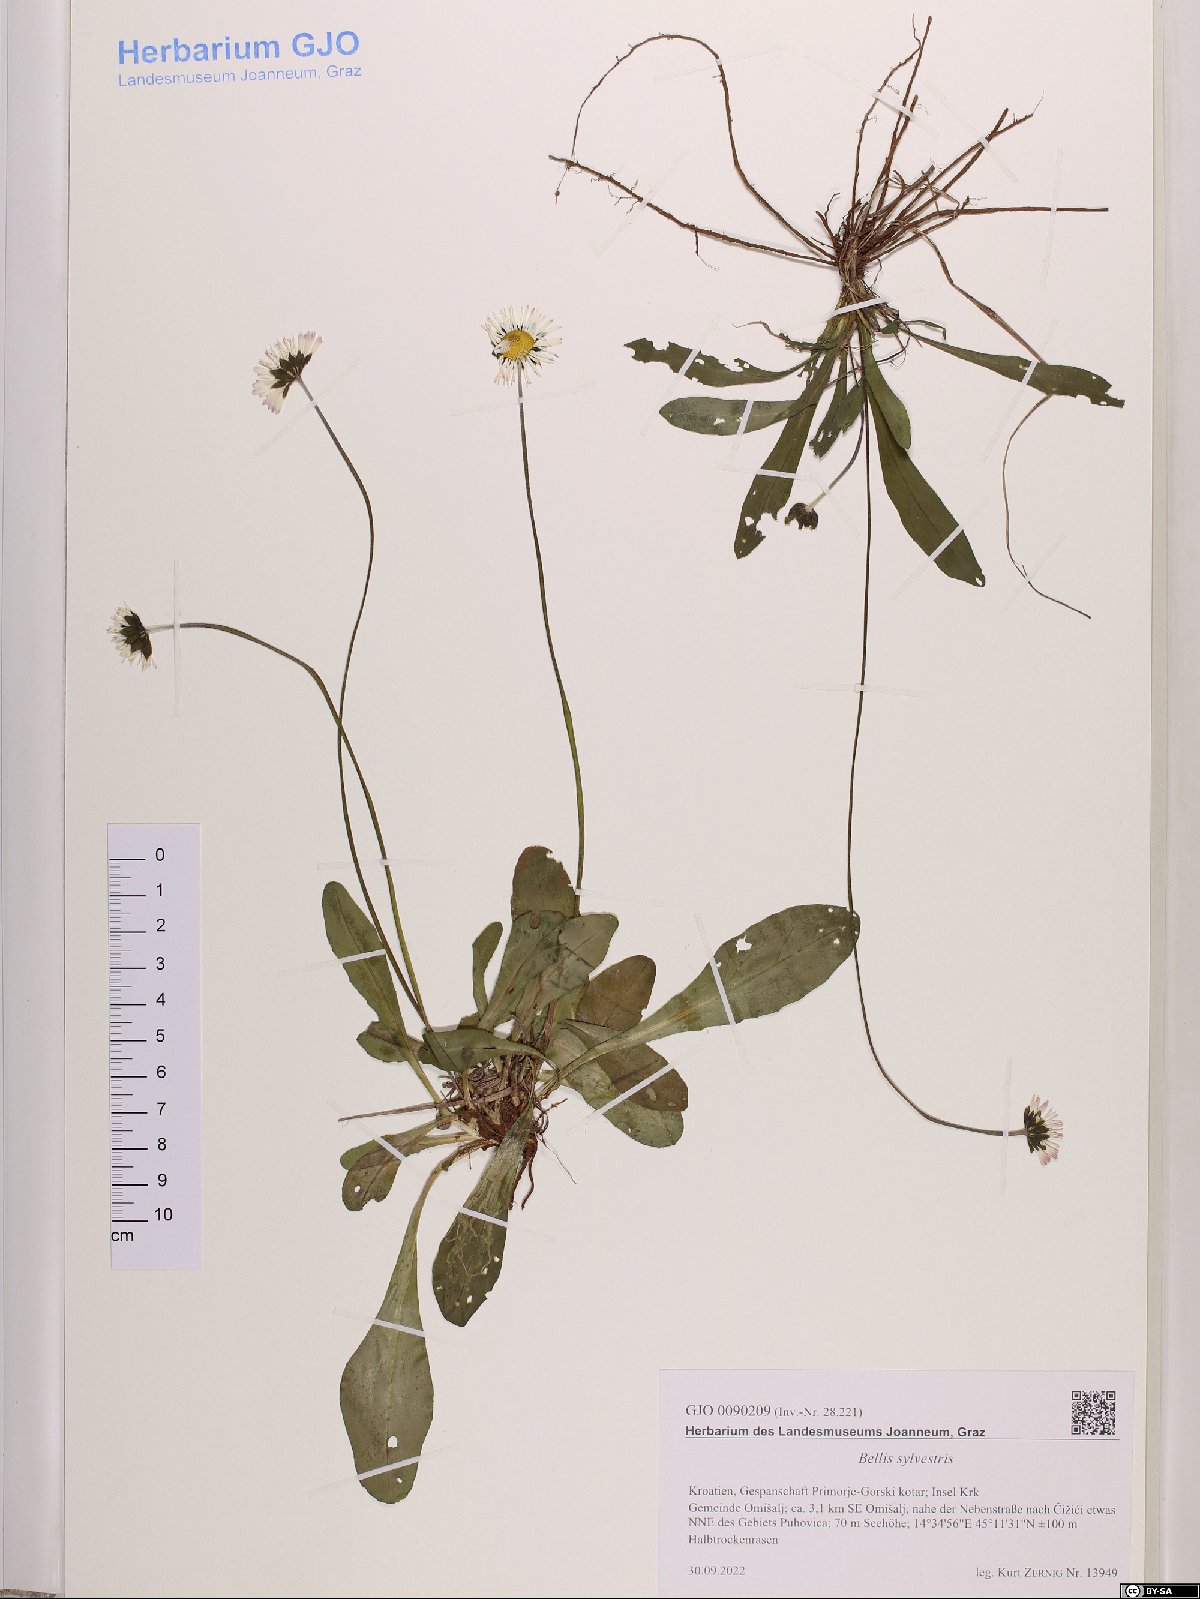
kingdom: Plantae
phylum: Tracheophyta
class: Magnoliopsida
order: Asterales
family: Asteraceae
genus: Bellis
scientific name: Bellis sylvestris
